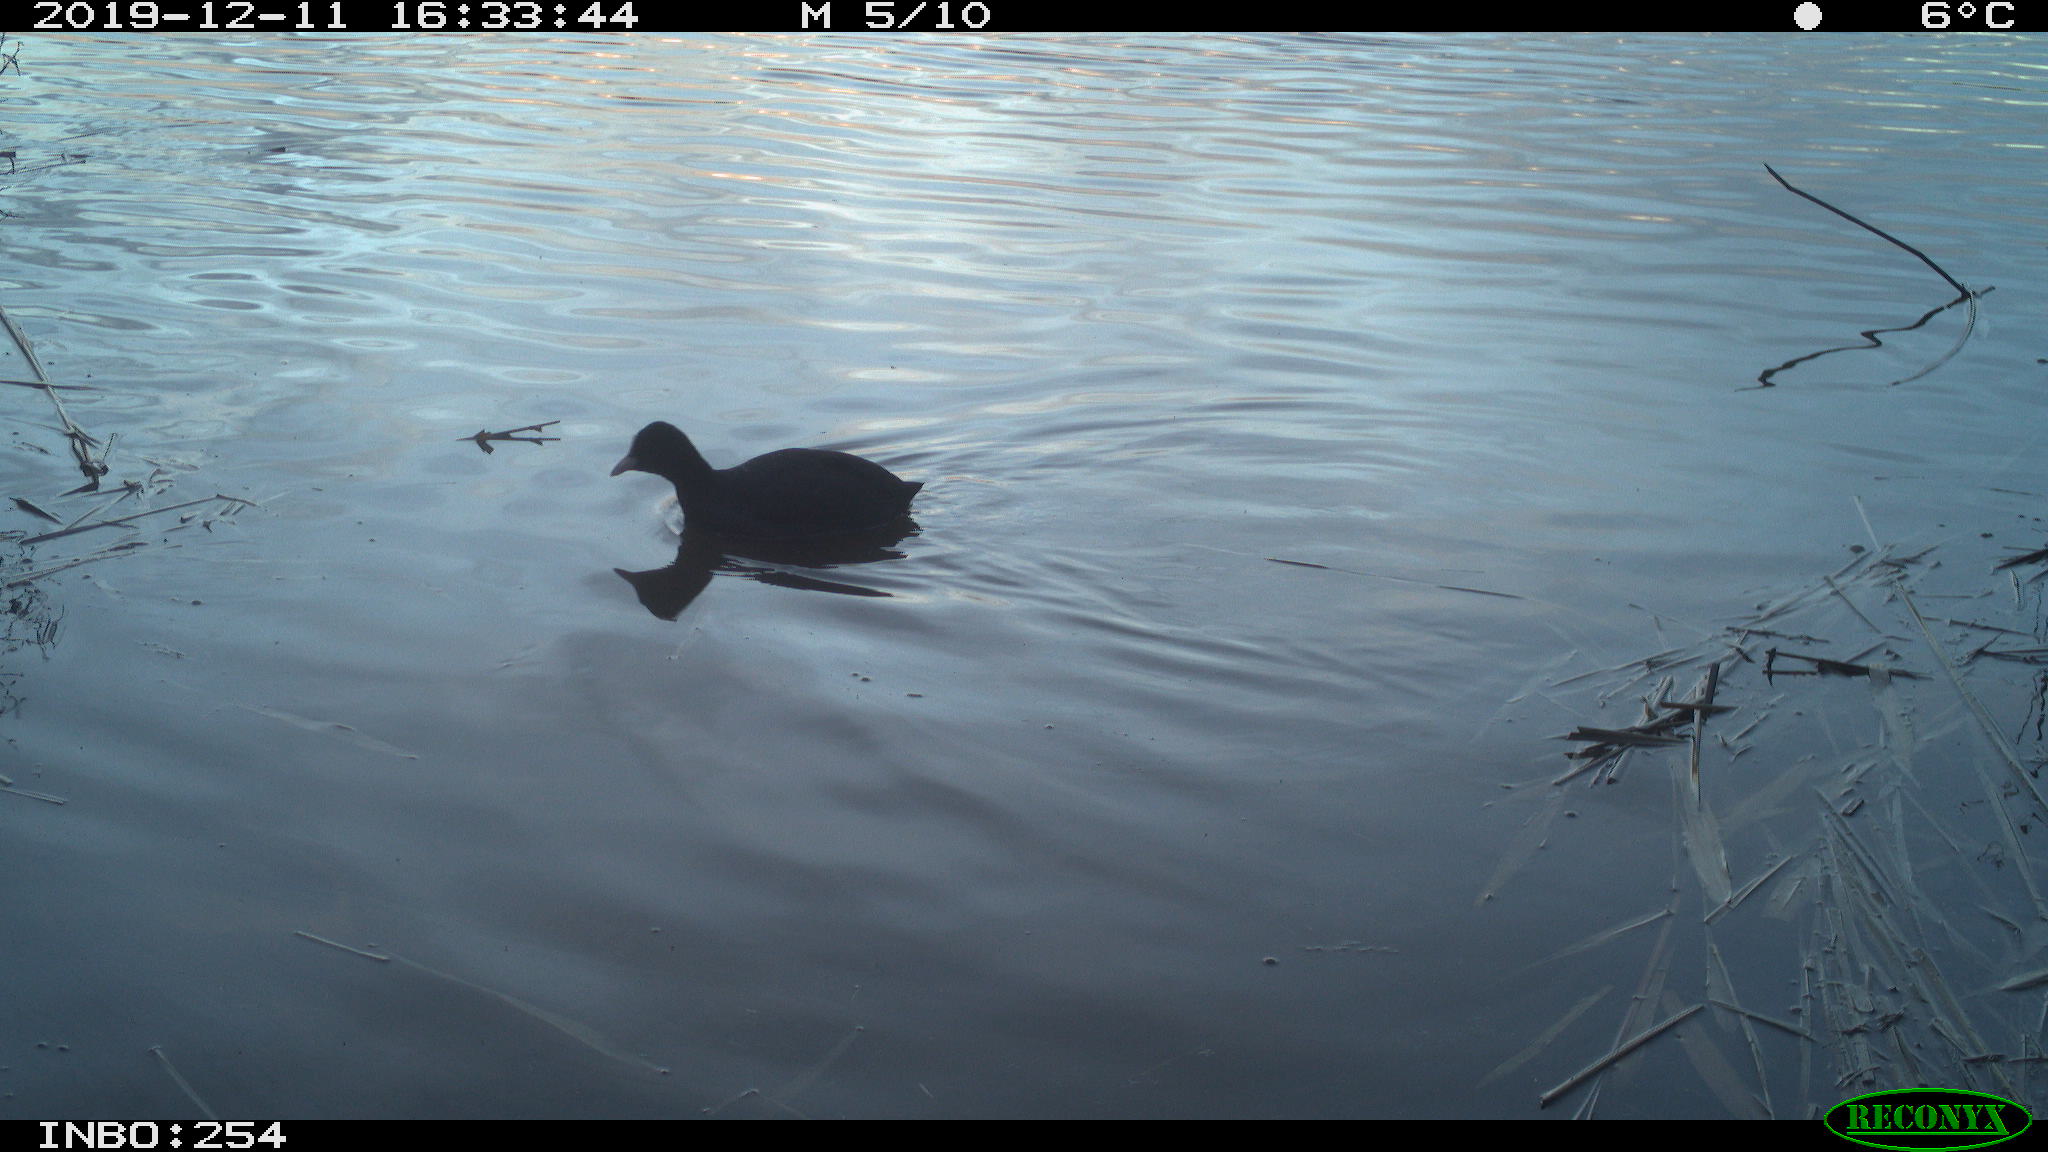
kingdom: Animalia
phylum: Chordata
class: Aves
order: Gruiformes
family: Rallidae
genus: Fulica
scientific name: Fulica atra
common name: Eurasian coot
